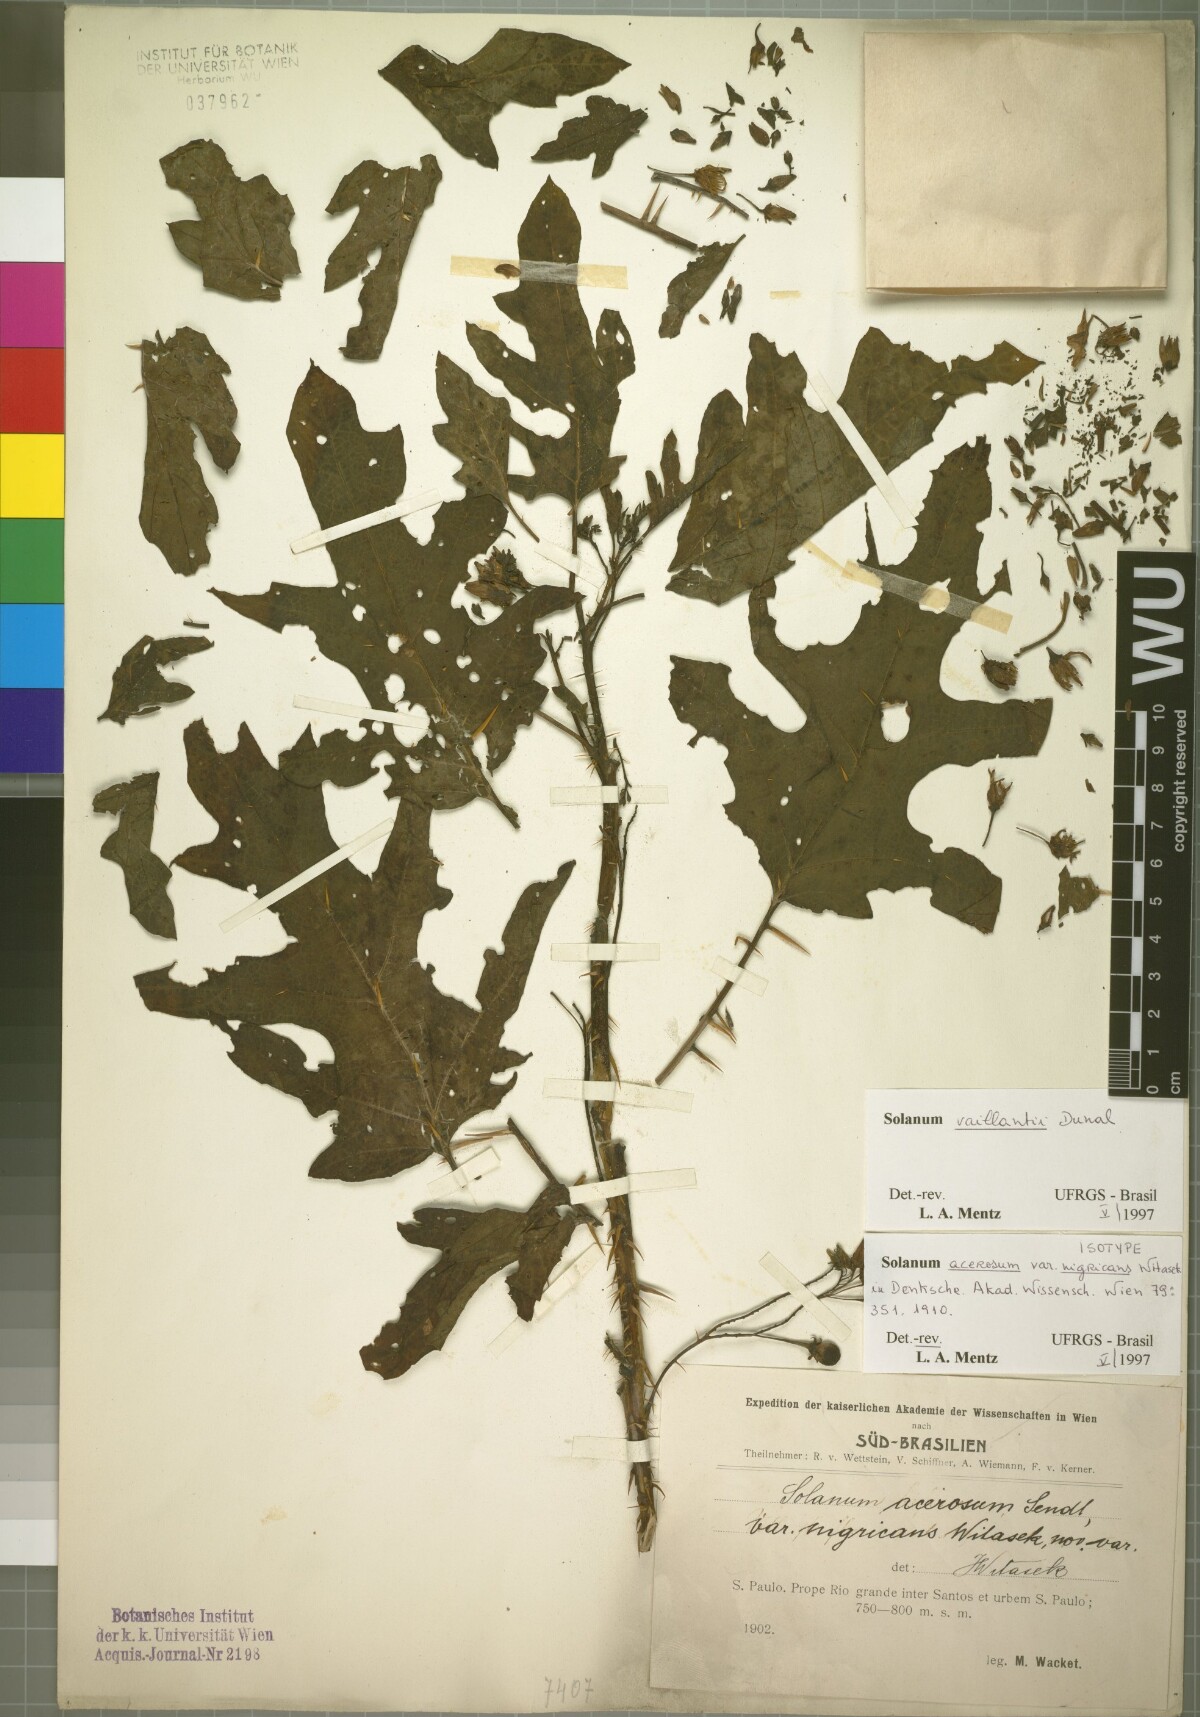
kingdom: Plantae
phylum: Tracheophyta
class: Magnoliopsida
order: Solanales
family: Solanaceae
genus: Solanum
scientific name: Solanum vaillantii
